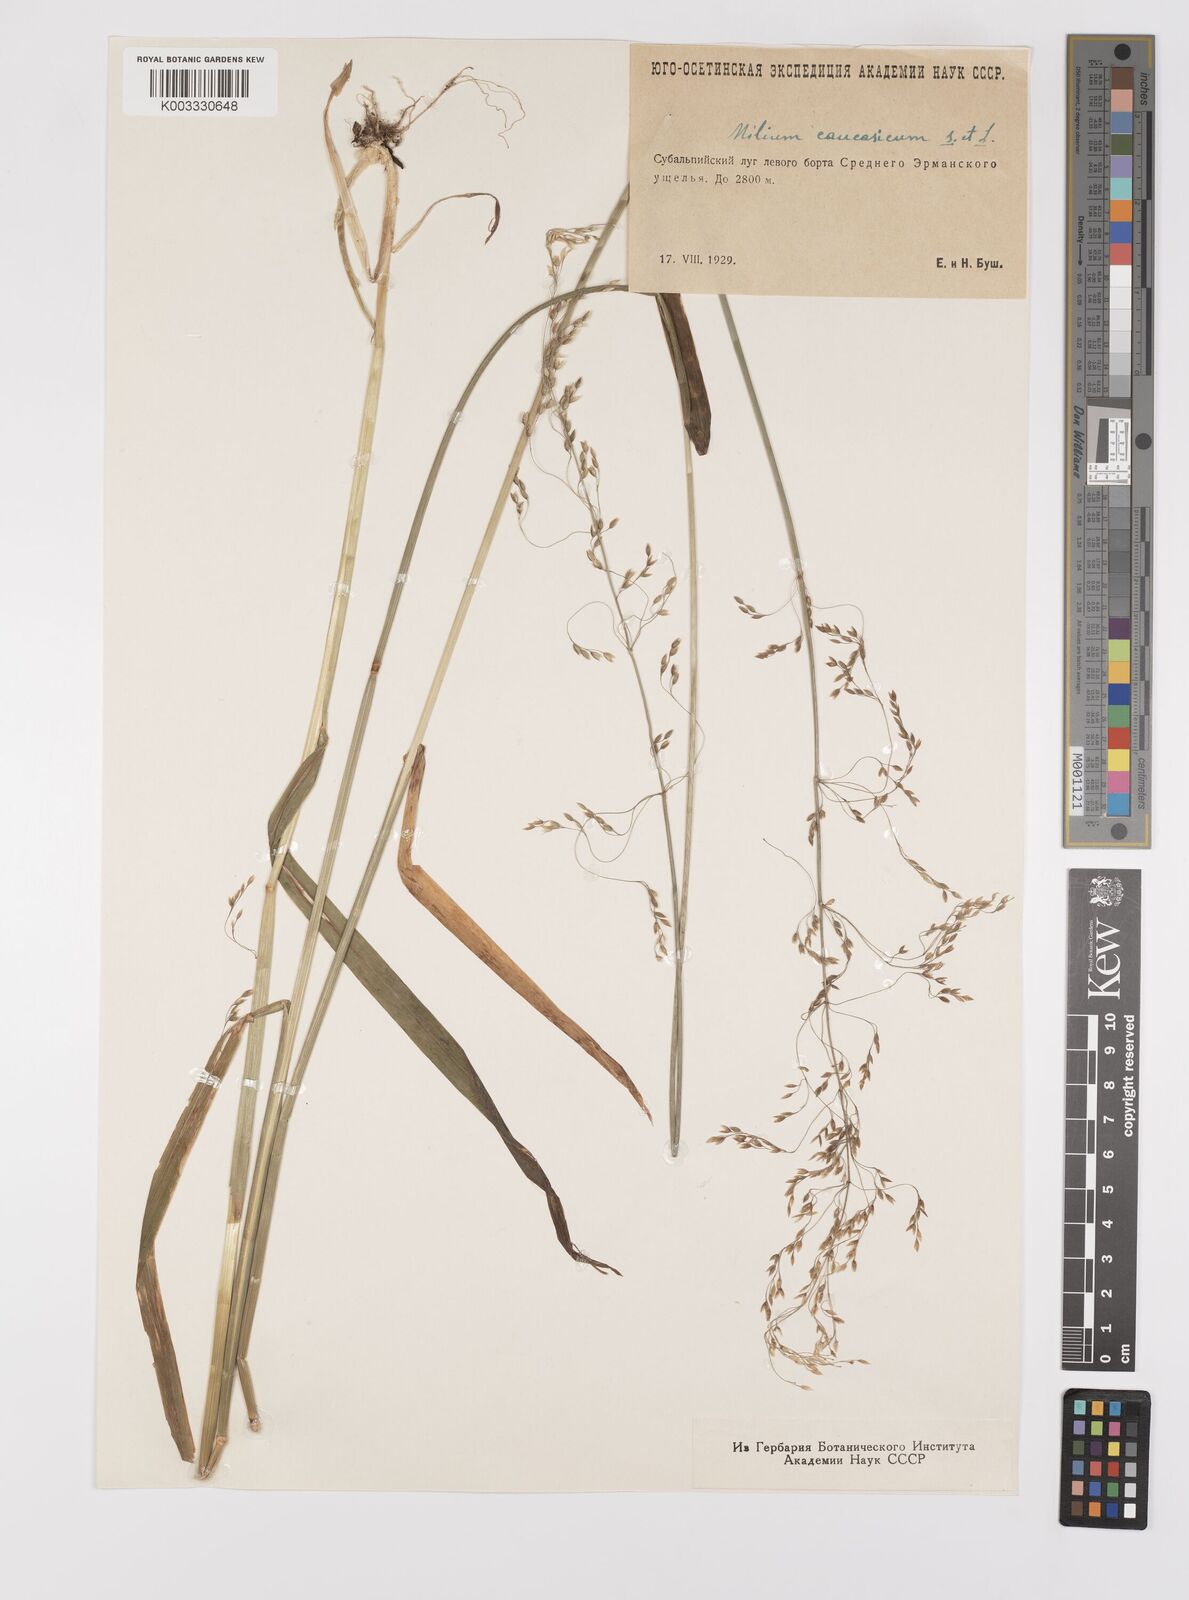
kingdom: Plantae
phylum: Tracheophyta
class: Liliopsida
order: Poales
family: Poaceae
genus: Milium
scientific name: Milium effusum
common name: Wood millet
